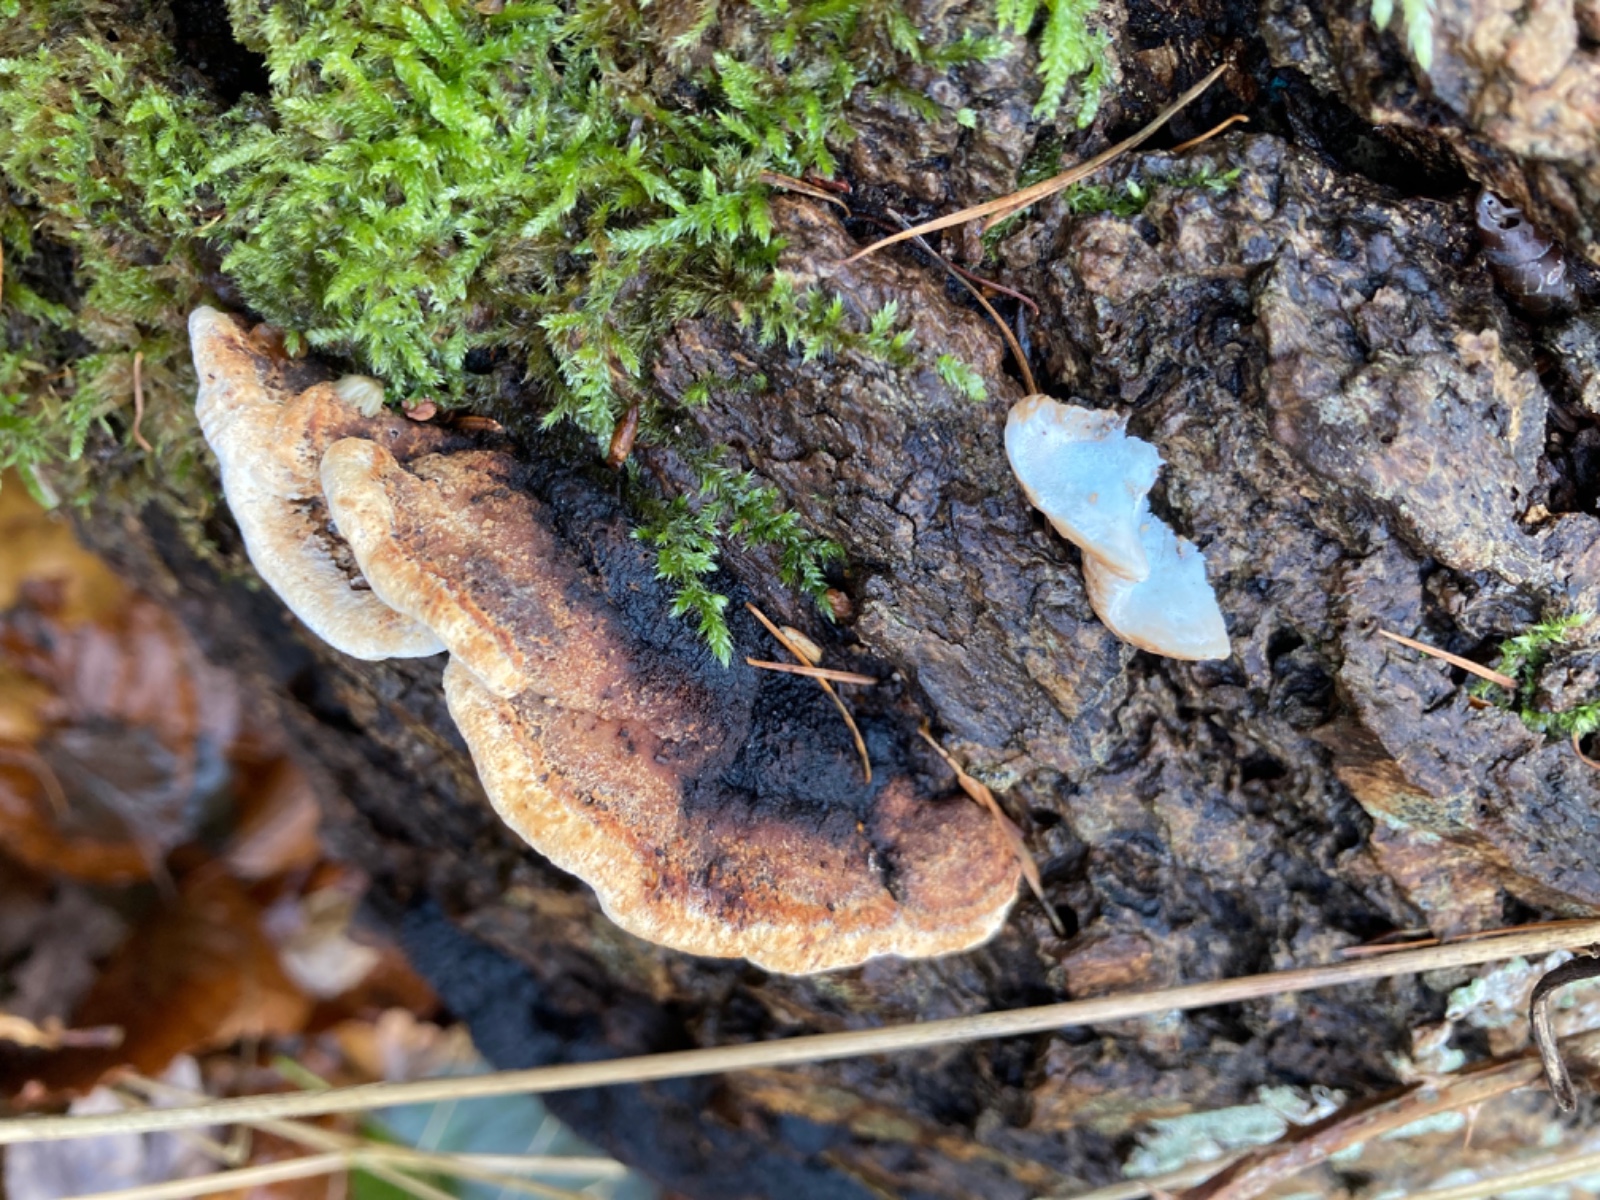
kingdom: Fungi
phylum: Basidiomycota
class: Agaricomycetes
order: Polyporales
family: Incrustoporiaceae
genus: Skeletocutis
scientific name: Skeletocutis nemoralis
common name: stor krystalporesvamp
